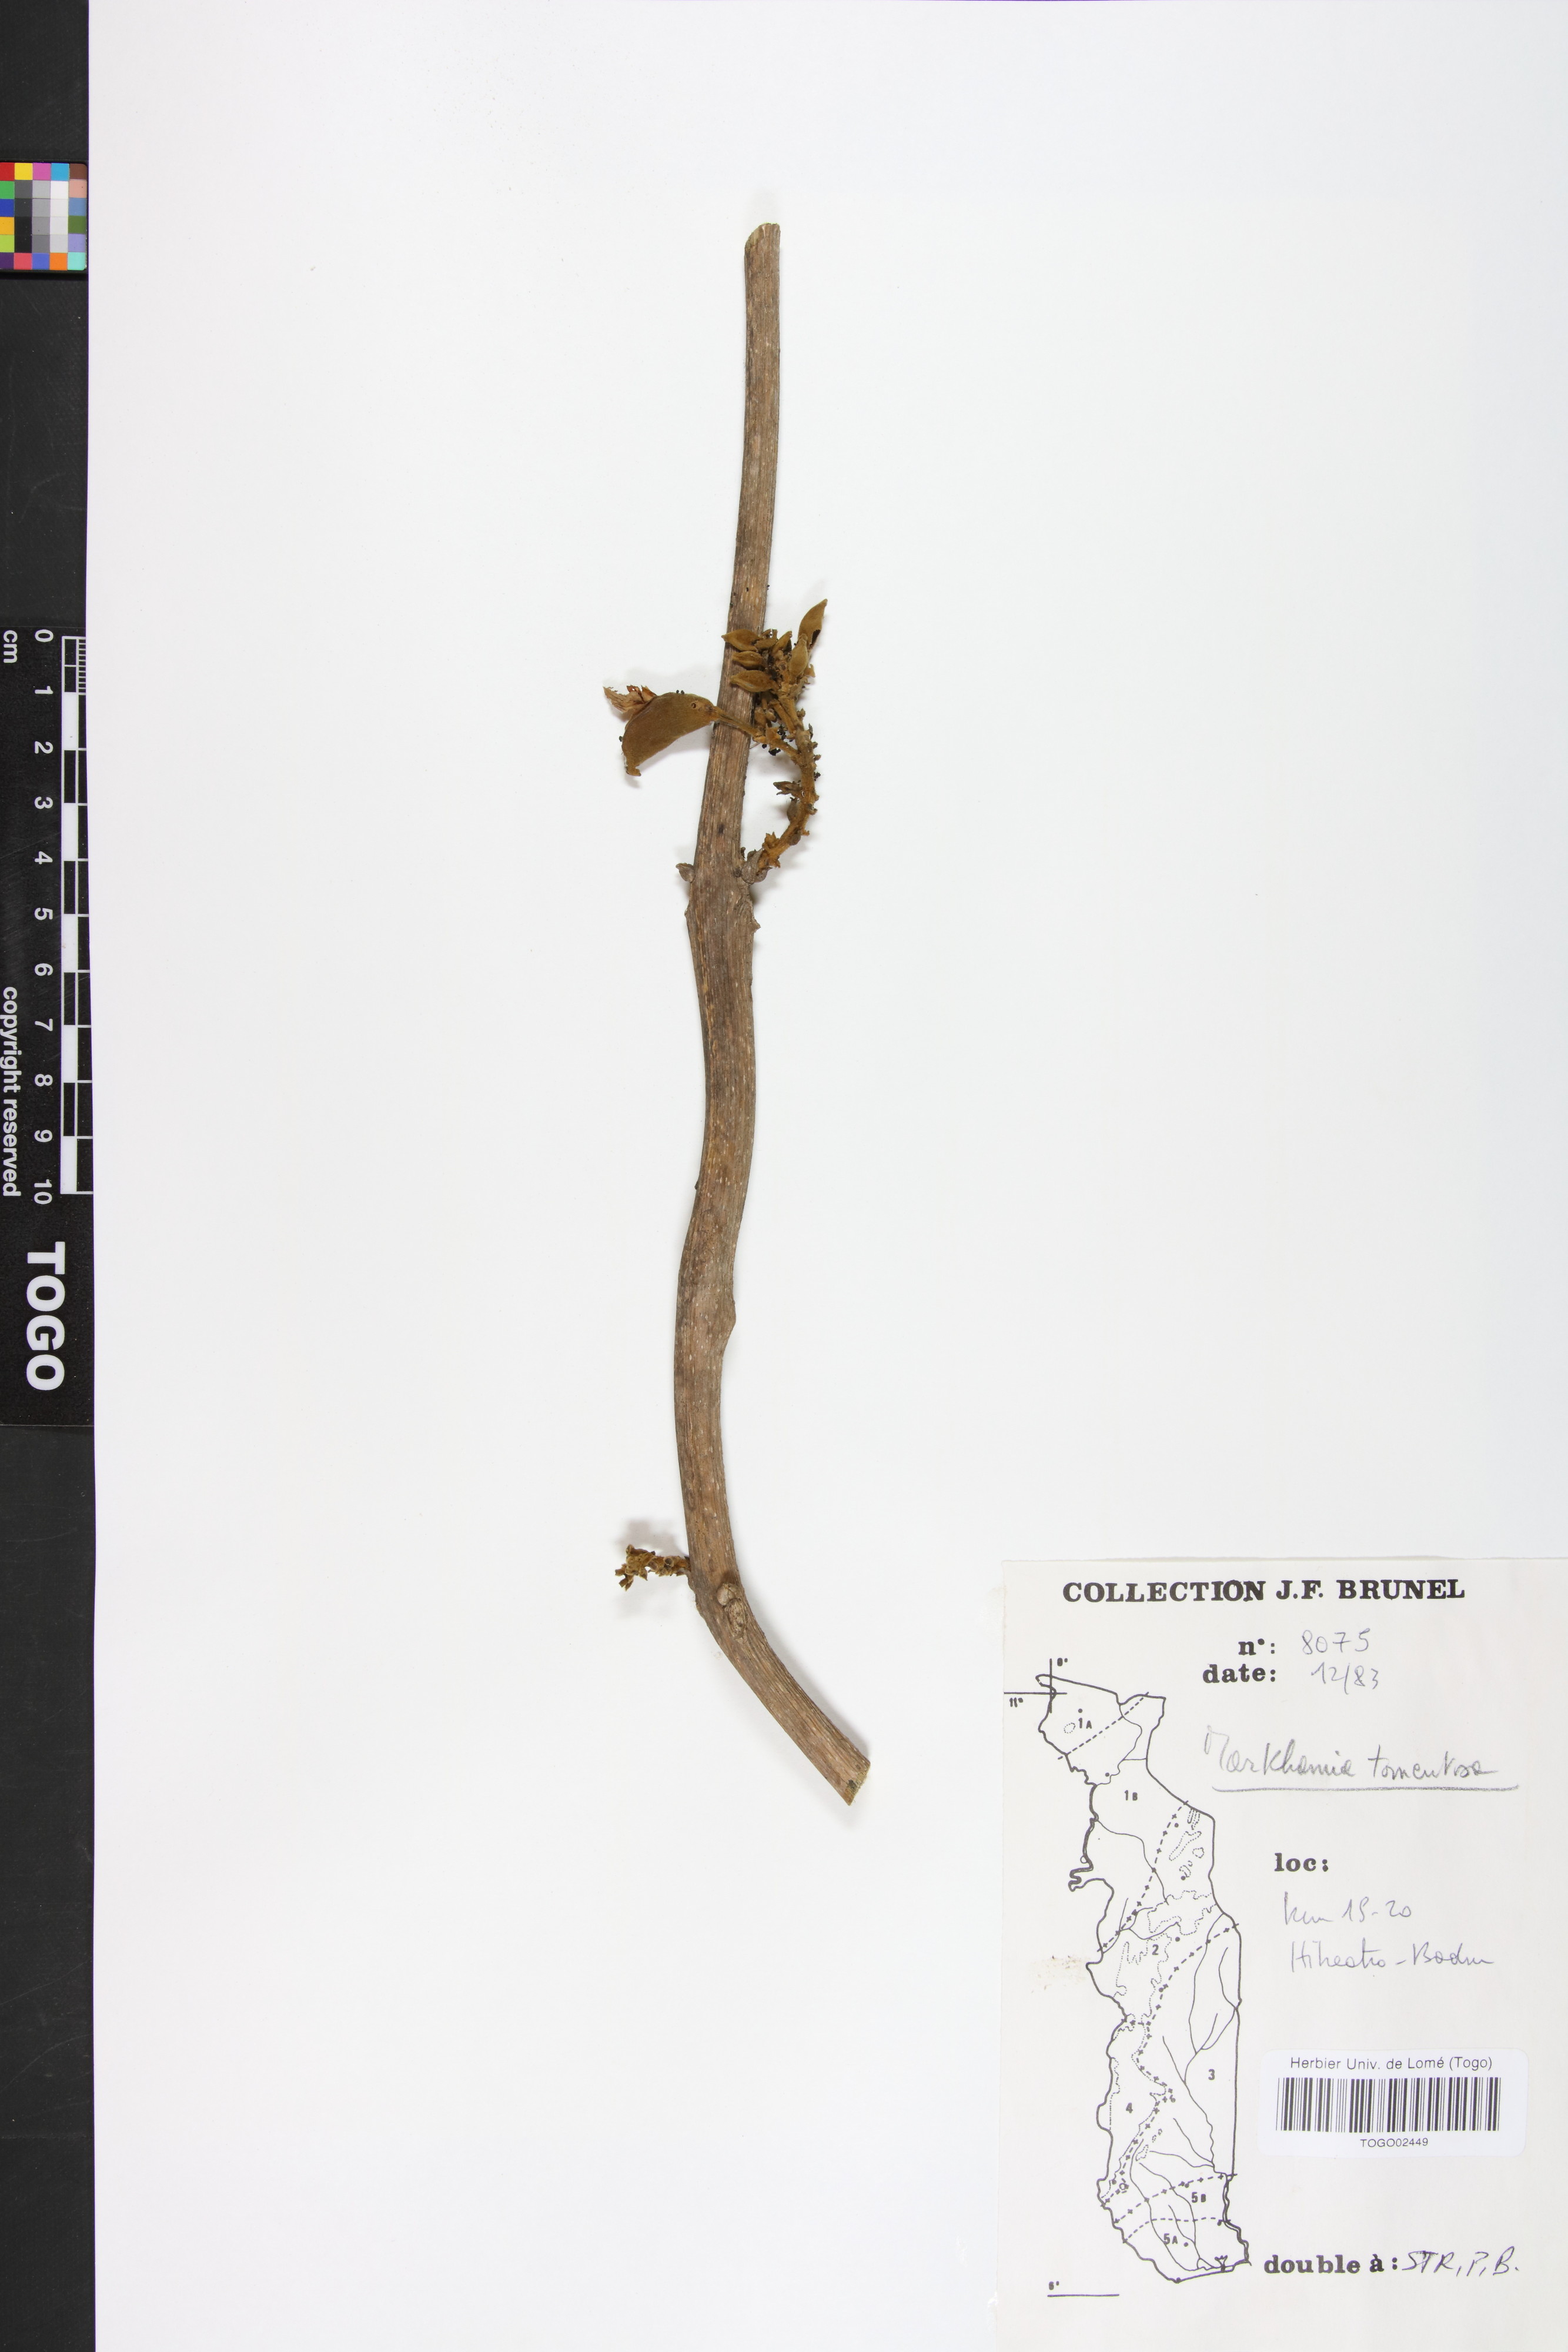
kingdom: Plantae
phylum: Tracheophyta
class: Magnoliopsida
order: Lamiales
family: Bignoniaceae
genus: Markhamia
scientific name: Markhamia tomentosa
